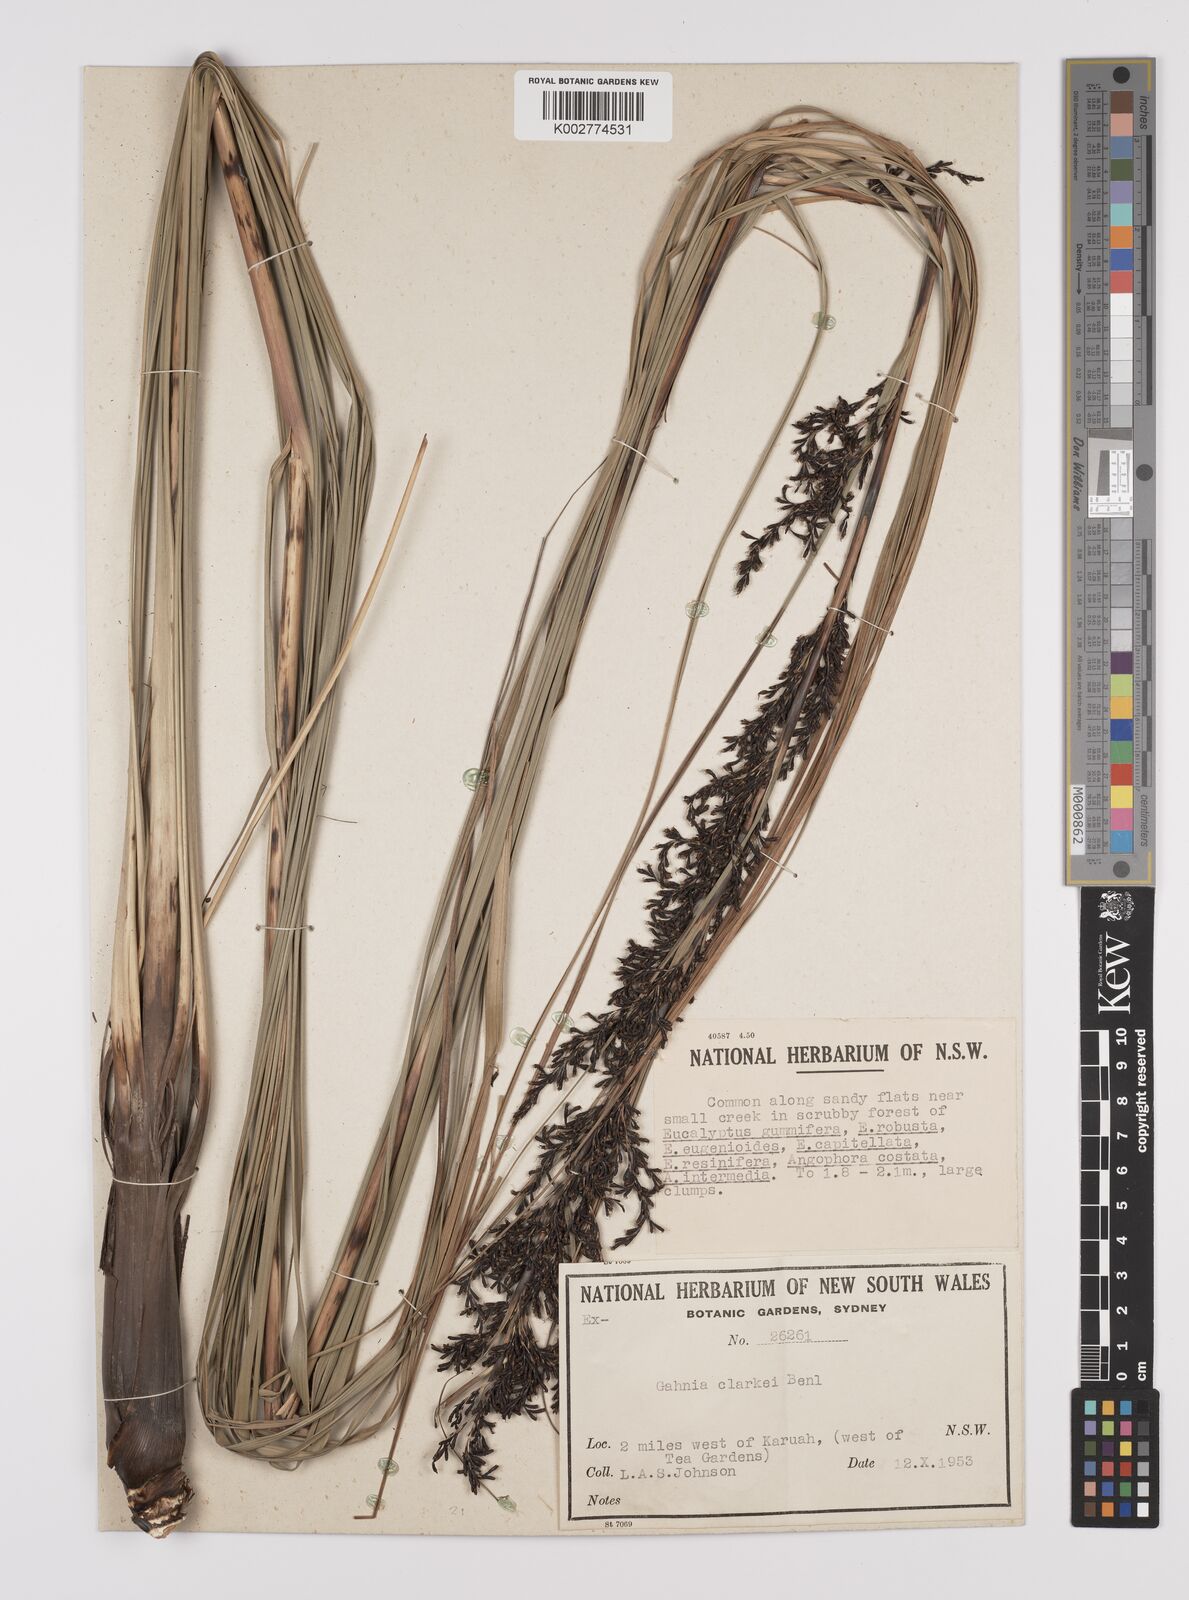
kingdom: Plantae
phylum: Tracheophyta
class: Liliopsida
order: Poales
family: Cyperaceae
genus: Gahnia
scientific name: Gahnia clarkei
